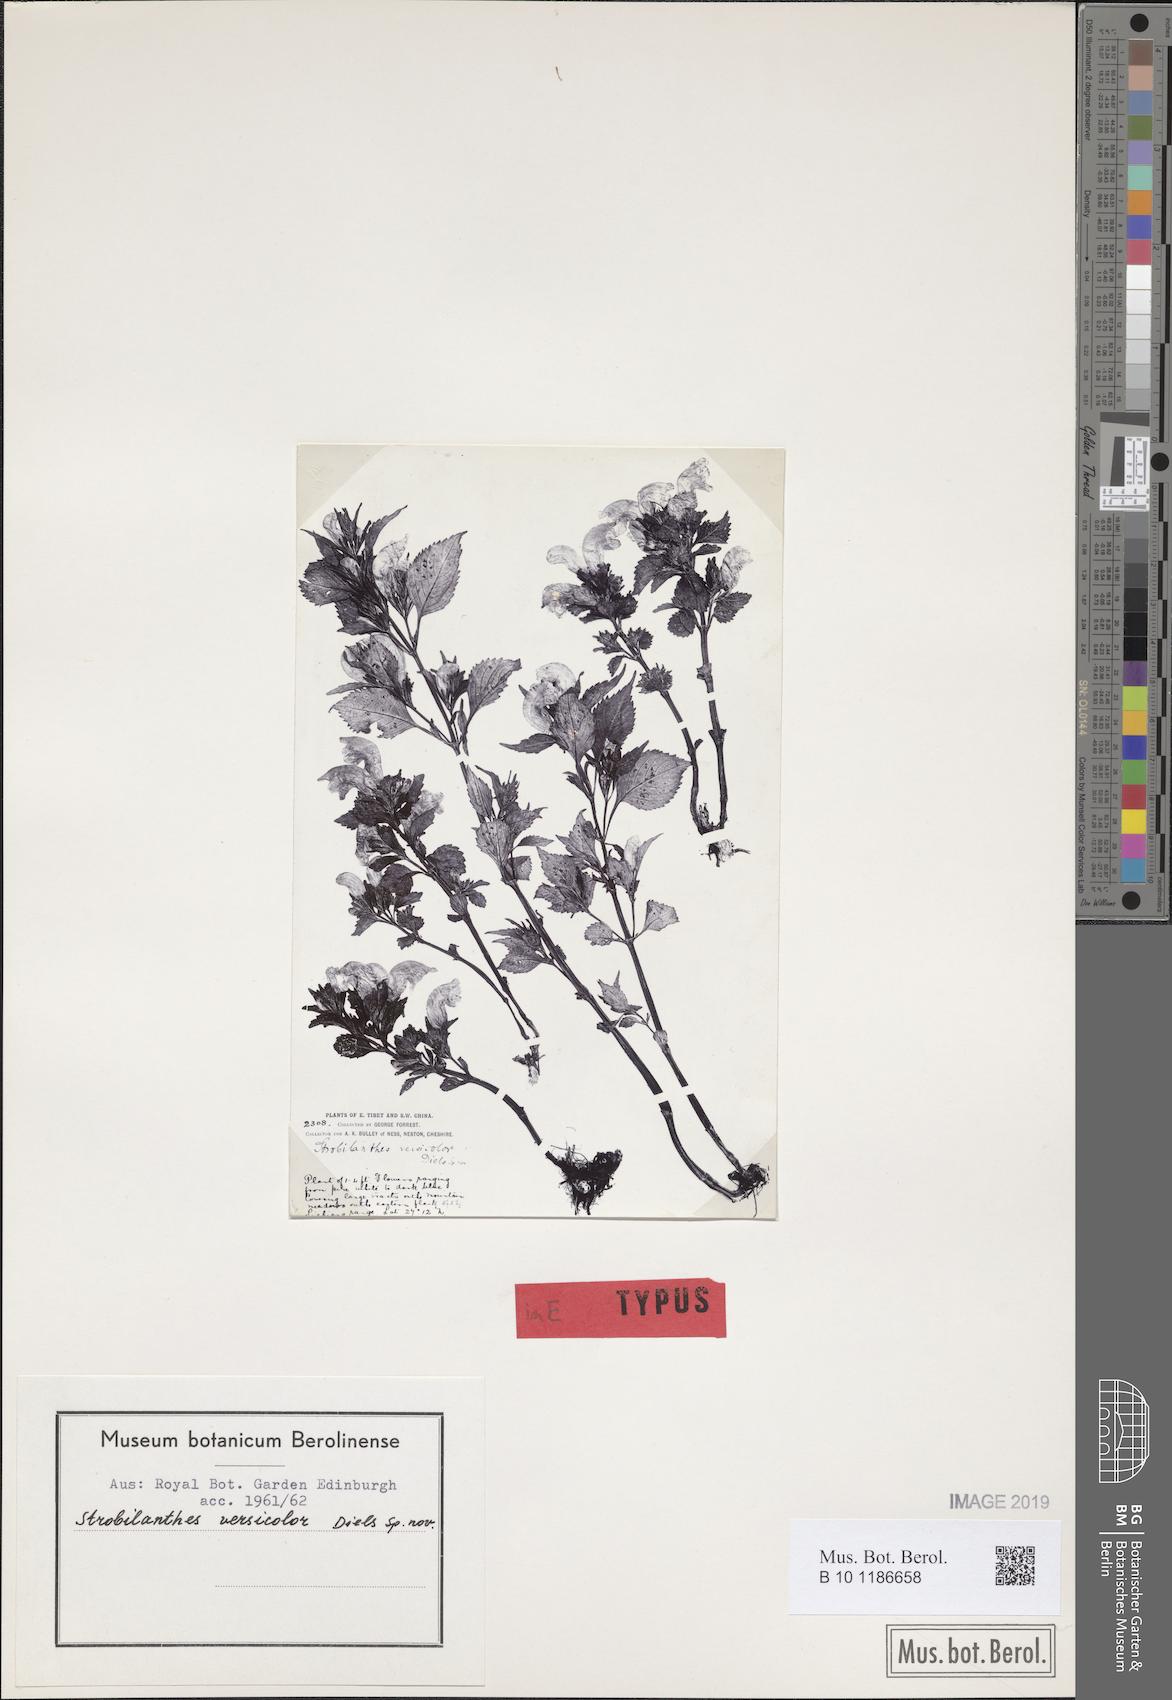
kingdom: Plantae
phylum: Tracheophyta
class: Magnoliopsida
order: Lamiales
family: Acanthaceae
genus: Strobilanthes
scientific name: Strobilanthes versicolor
